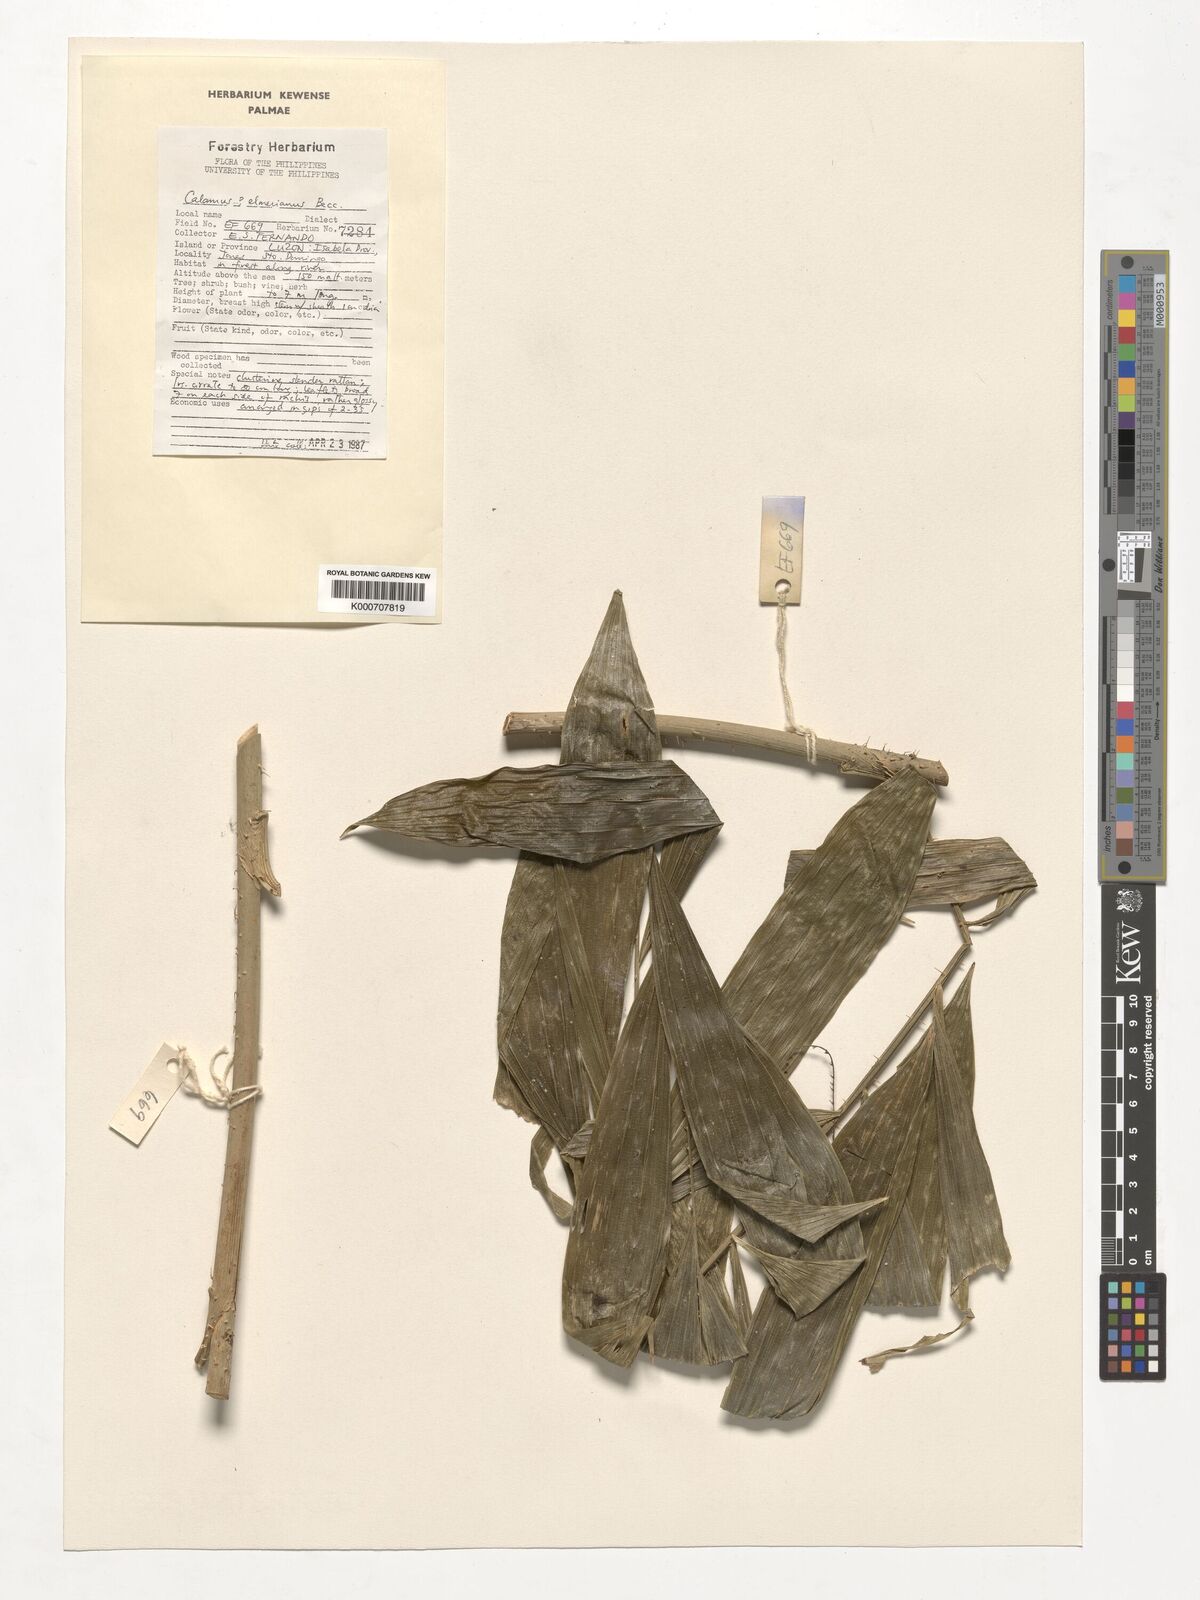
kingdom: Plantae
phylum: Tracheophyta
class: Liliopsida
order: Arecales
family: Arecaceae
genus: Calamus
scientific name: Calamus mitis
